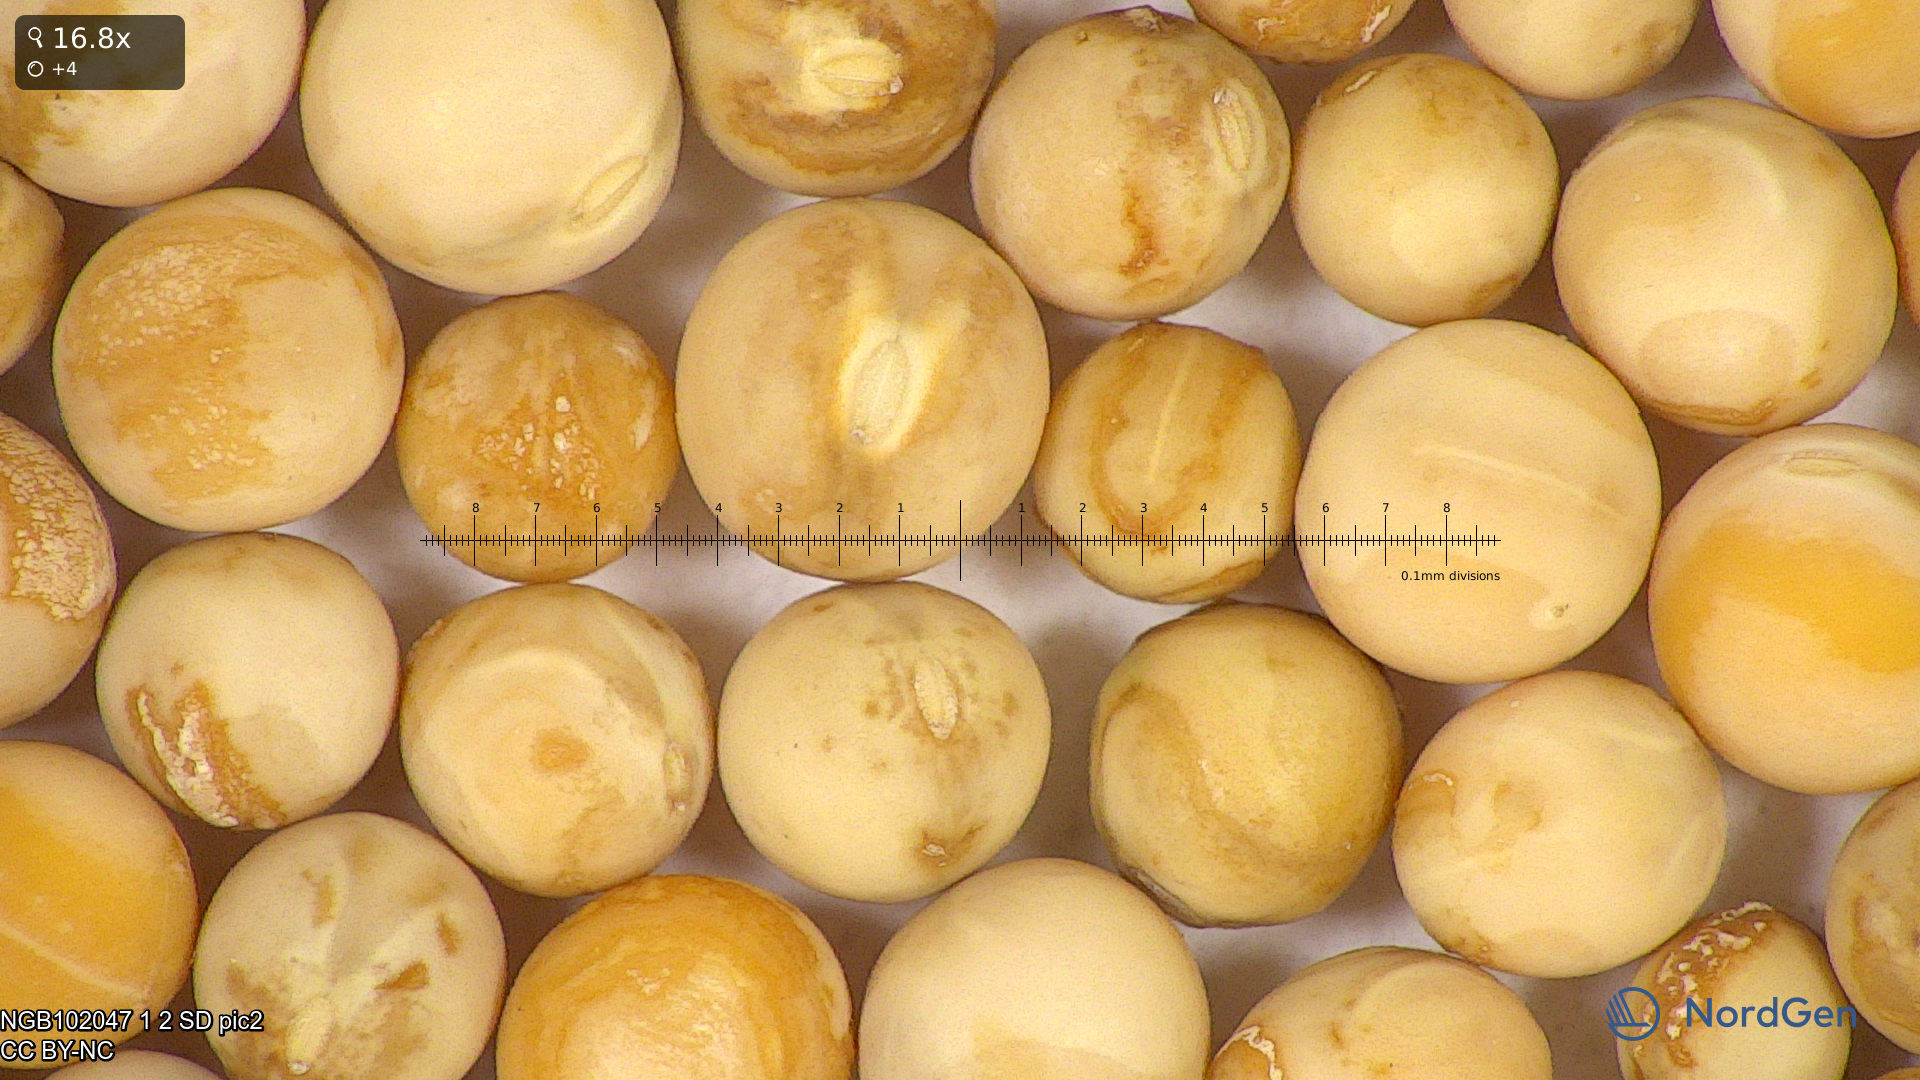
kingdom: Plantae
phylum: Tracheophyta
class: Magnoliopsida
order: Fabales
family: Fabaceae
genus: Lathyrus
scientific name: Lathyrus oleraceus
